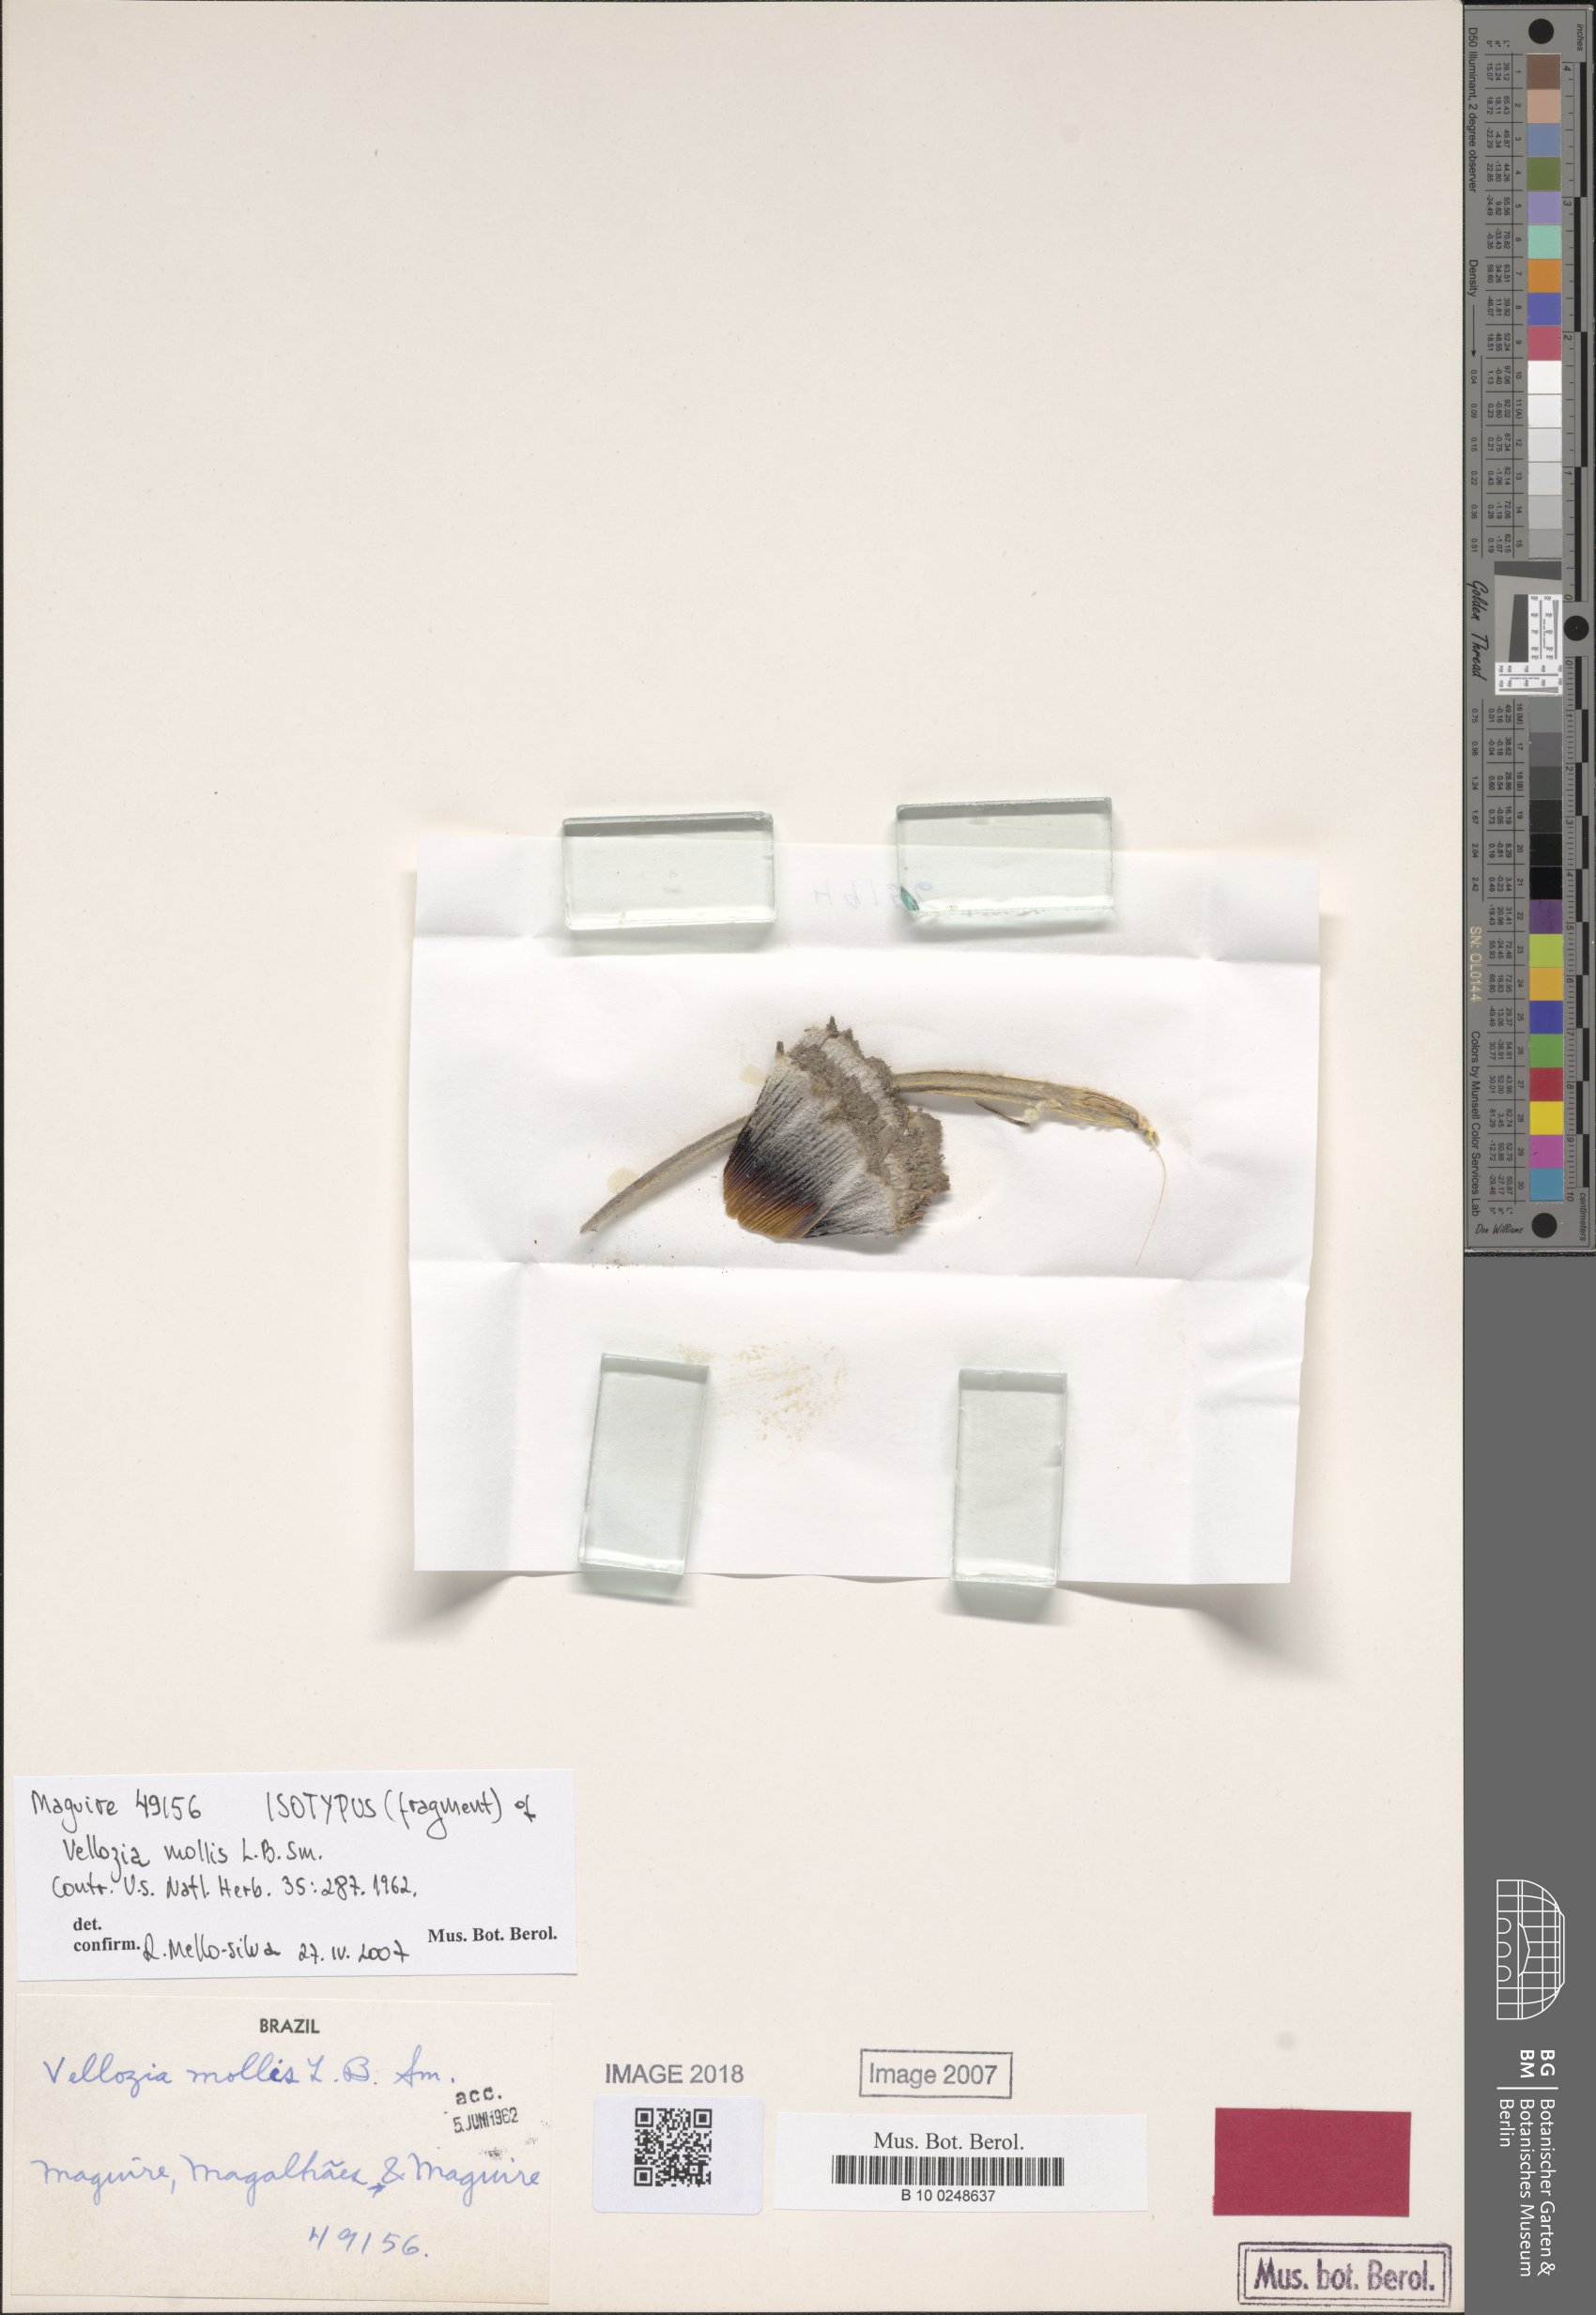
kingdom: Plantae
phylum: Tracheophyta
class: Liliopsida
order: Pandanales
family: Velloziaceae
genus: Vellozia
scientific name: Vellozia glandulifera
